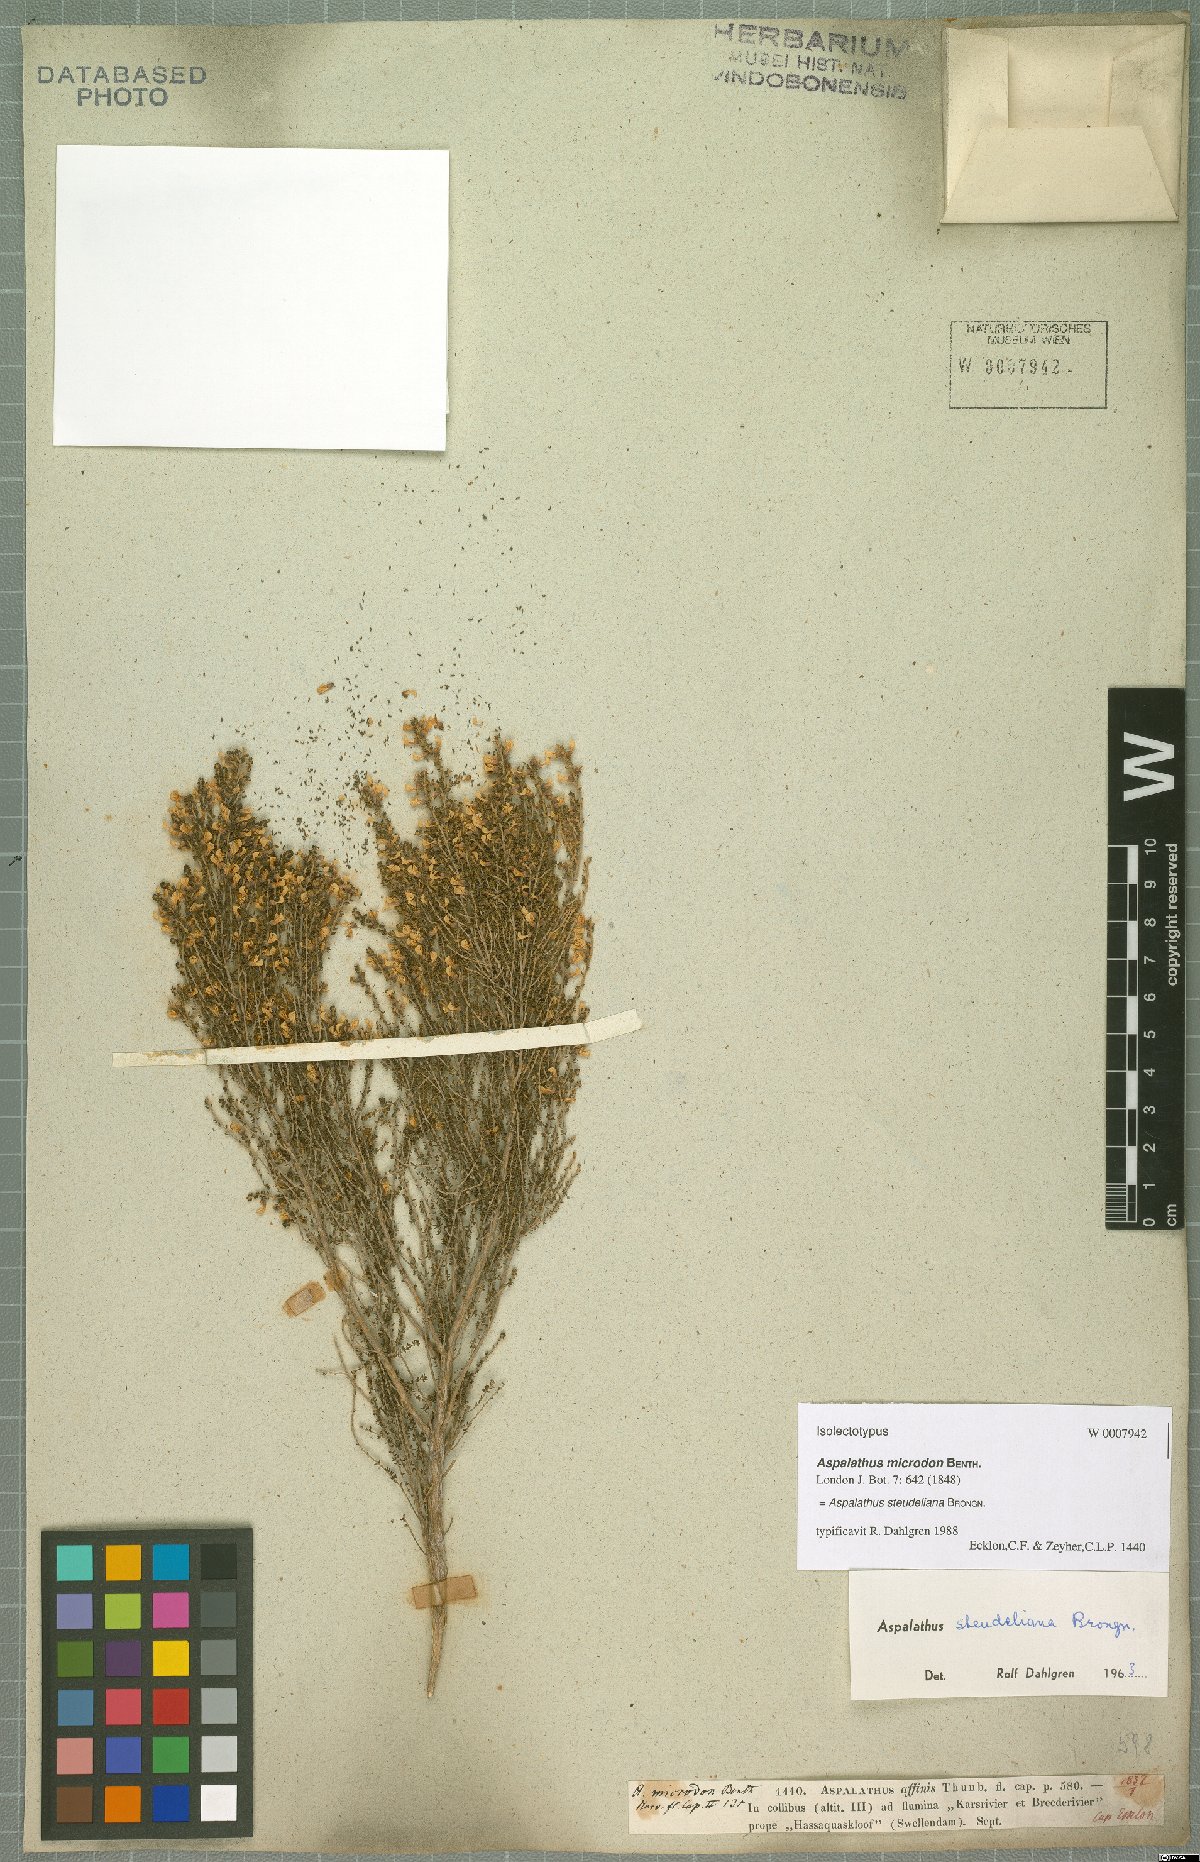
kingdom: Plantae
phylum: Tracheophyta
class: Magnoliopsida
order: Fabales
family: Fabaceae
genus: Aspalathus
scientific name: Aspalathus steudeliana
